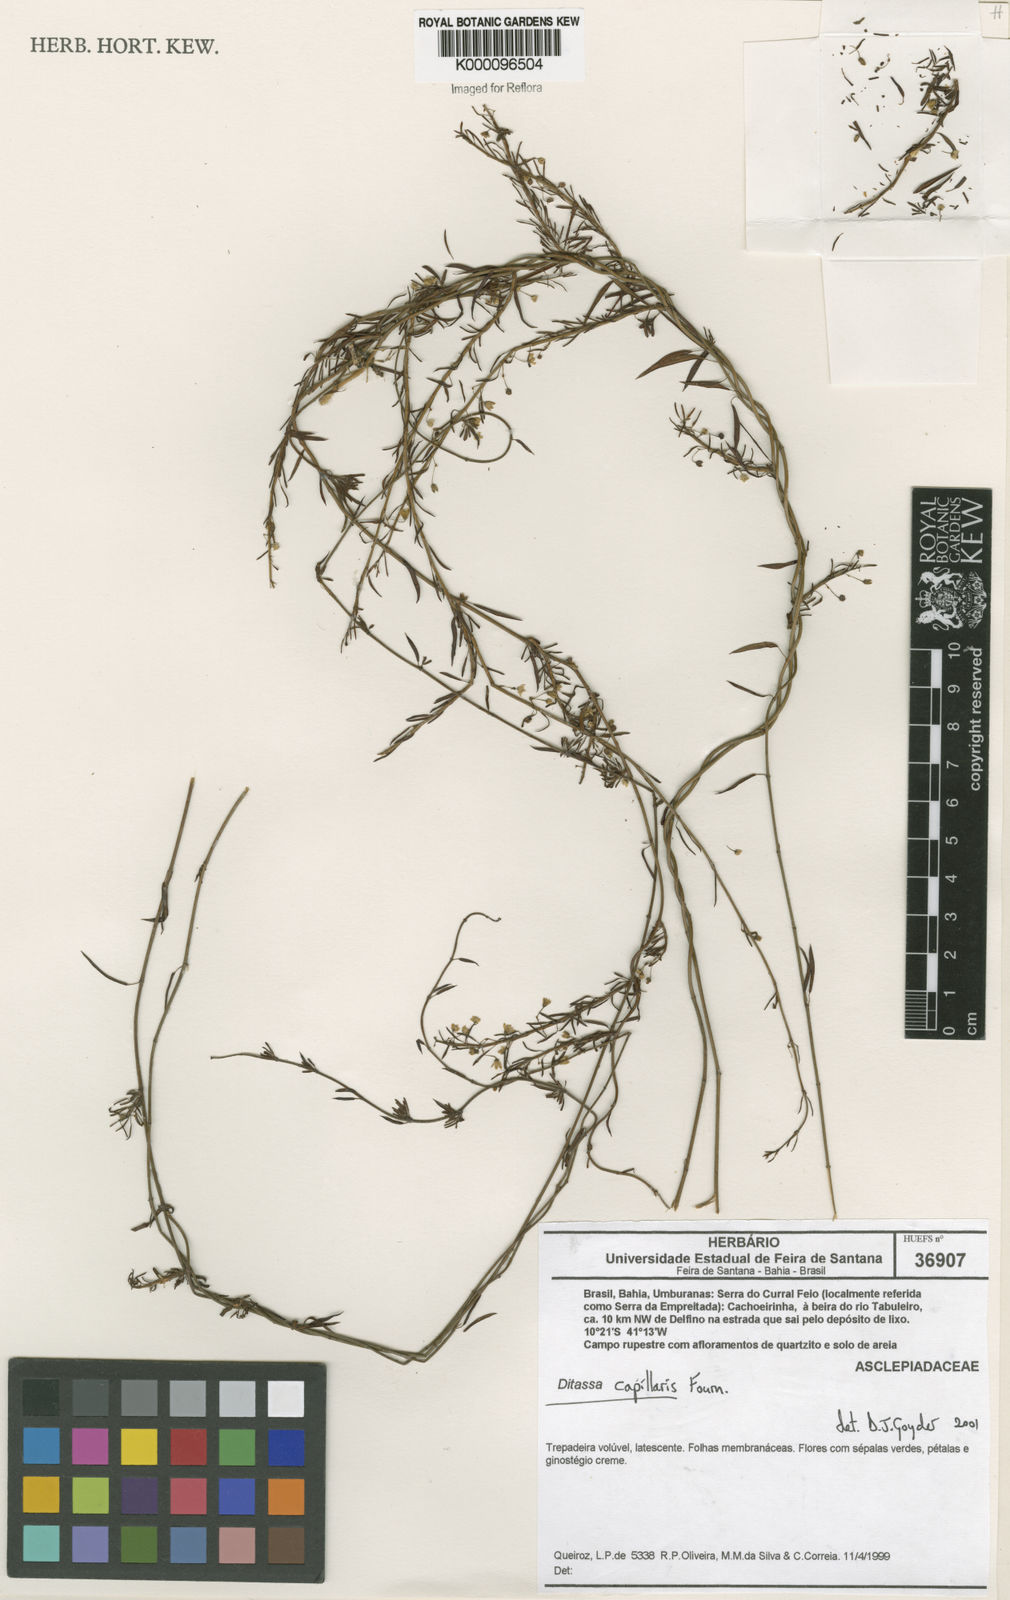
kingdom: Plantae
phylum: Tracheophyta
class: Magnoliopsida
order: Gentianales
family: Apocynaceae
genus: Ditassa
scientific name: Ditassa capillaris
